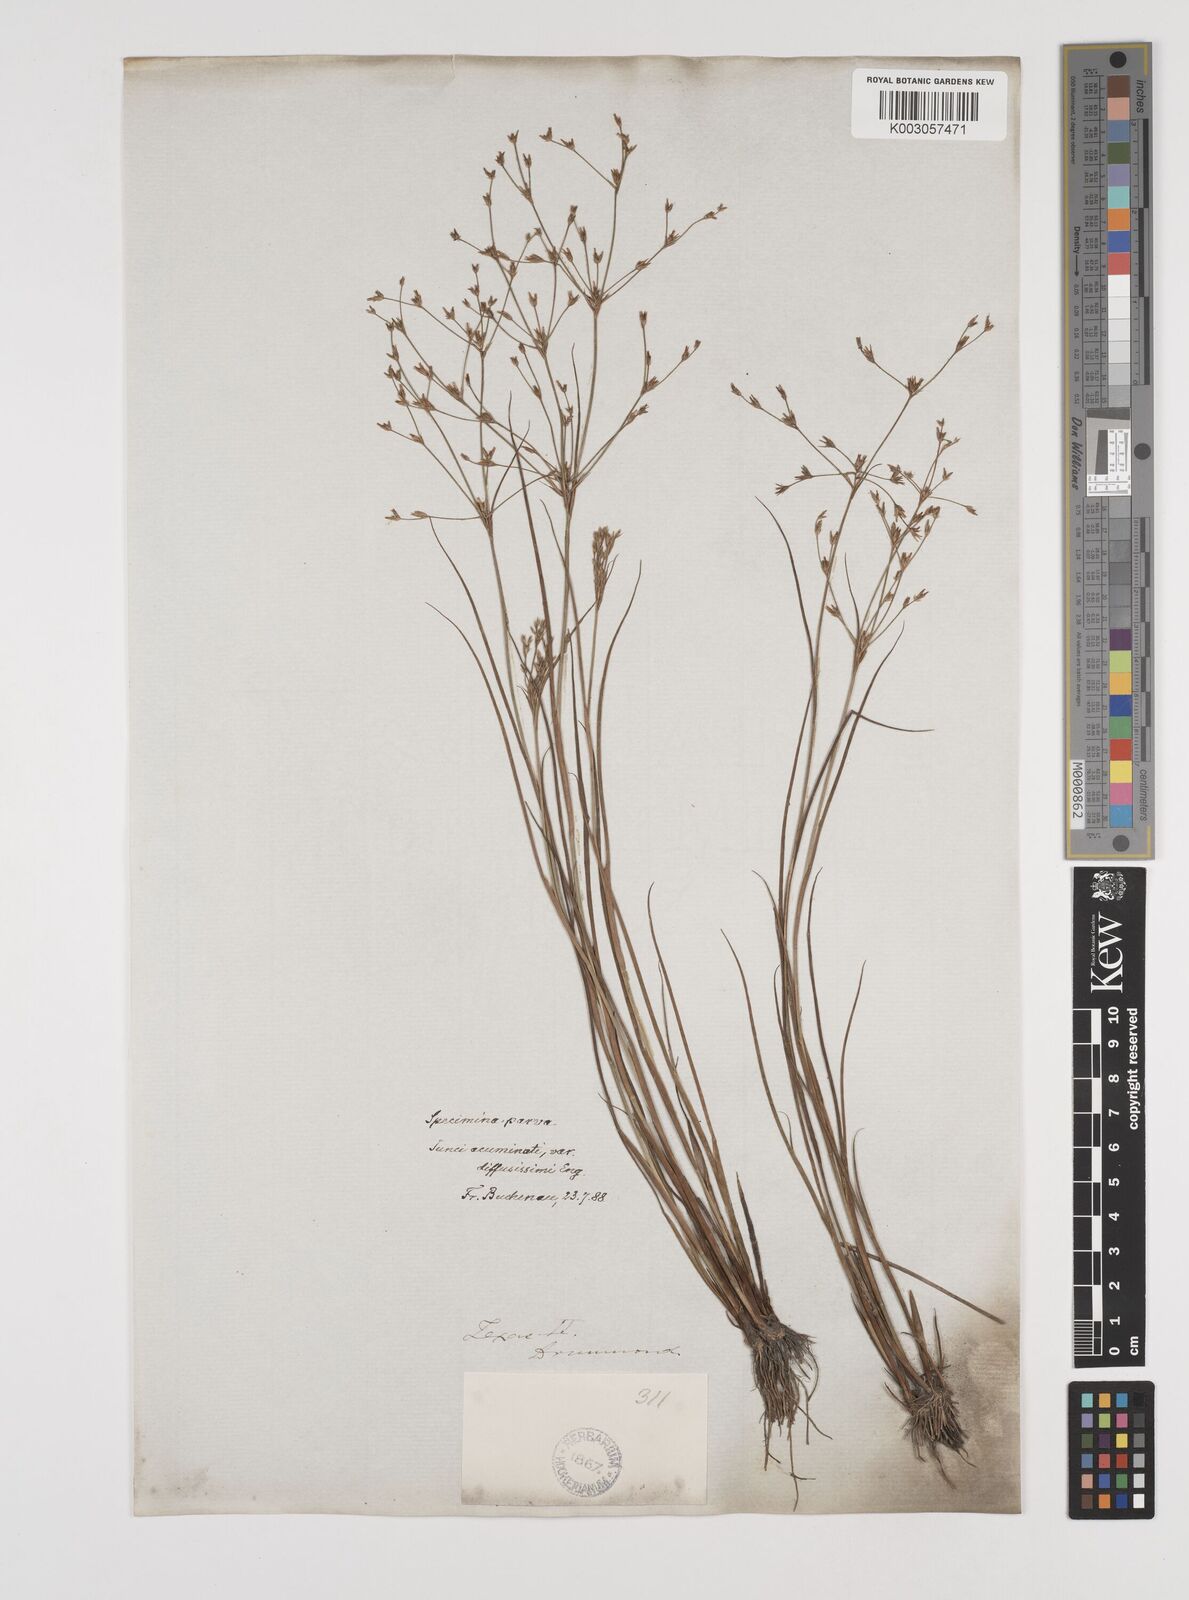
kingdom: Plantae
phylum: Tracheophyta
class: Liliopsida
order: Poales
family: Juncaceae
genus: Juncus
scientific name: Juncus diffusissimus
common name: Slimpod rush
